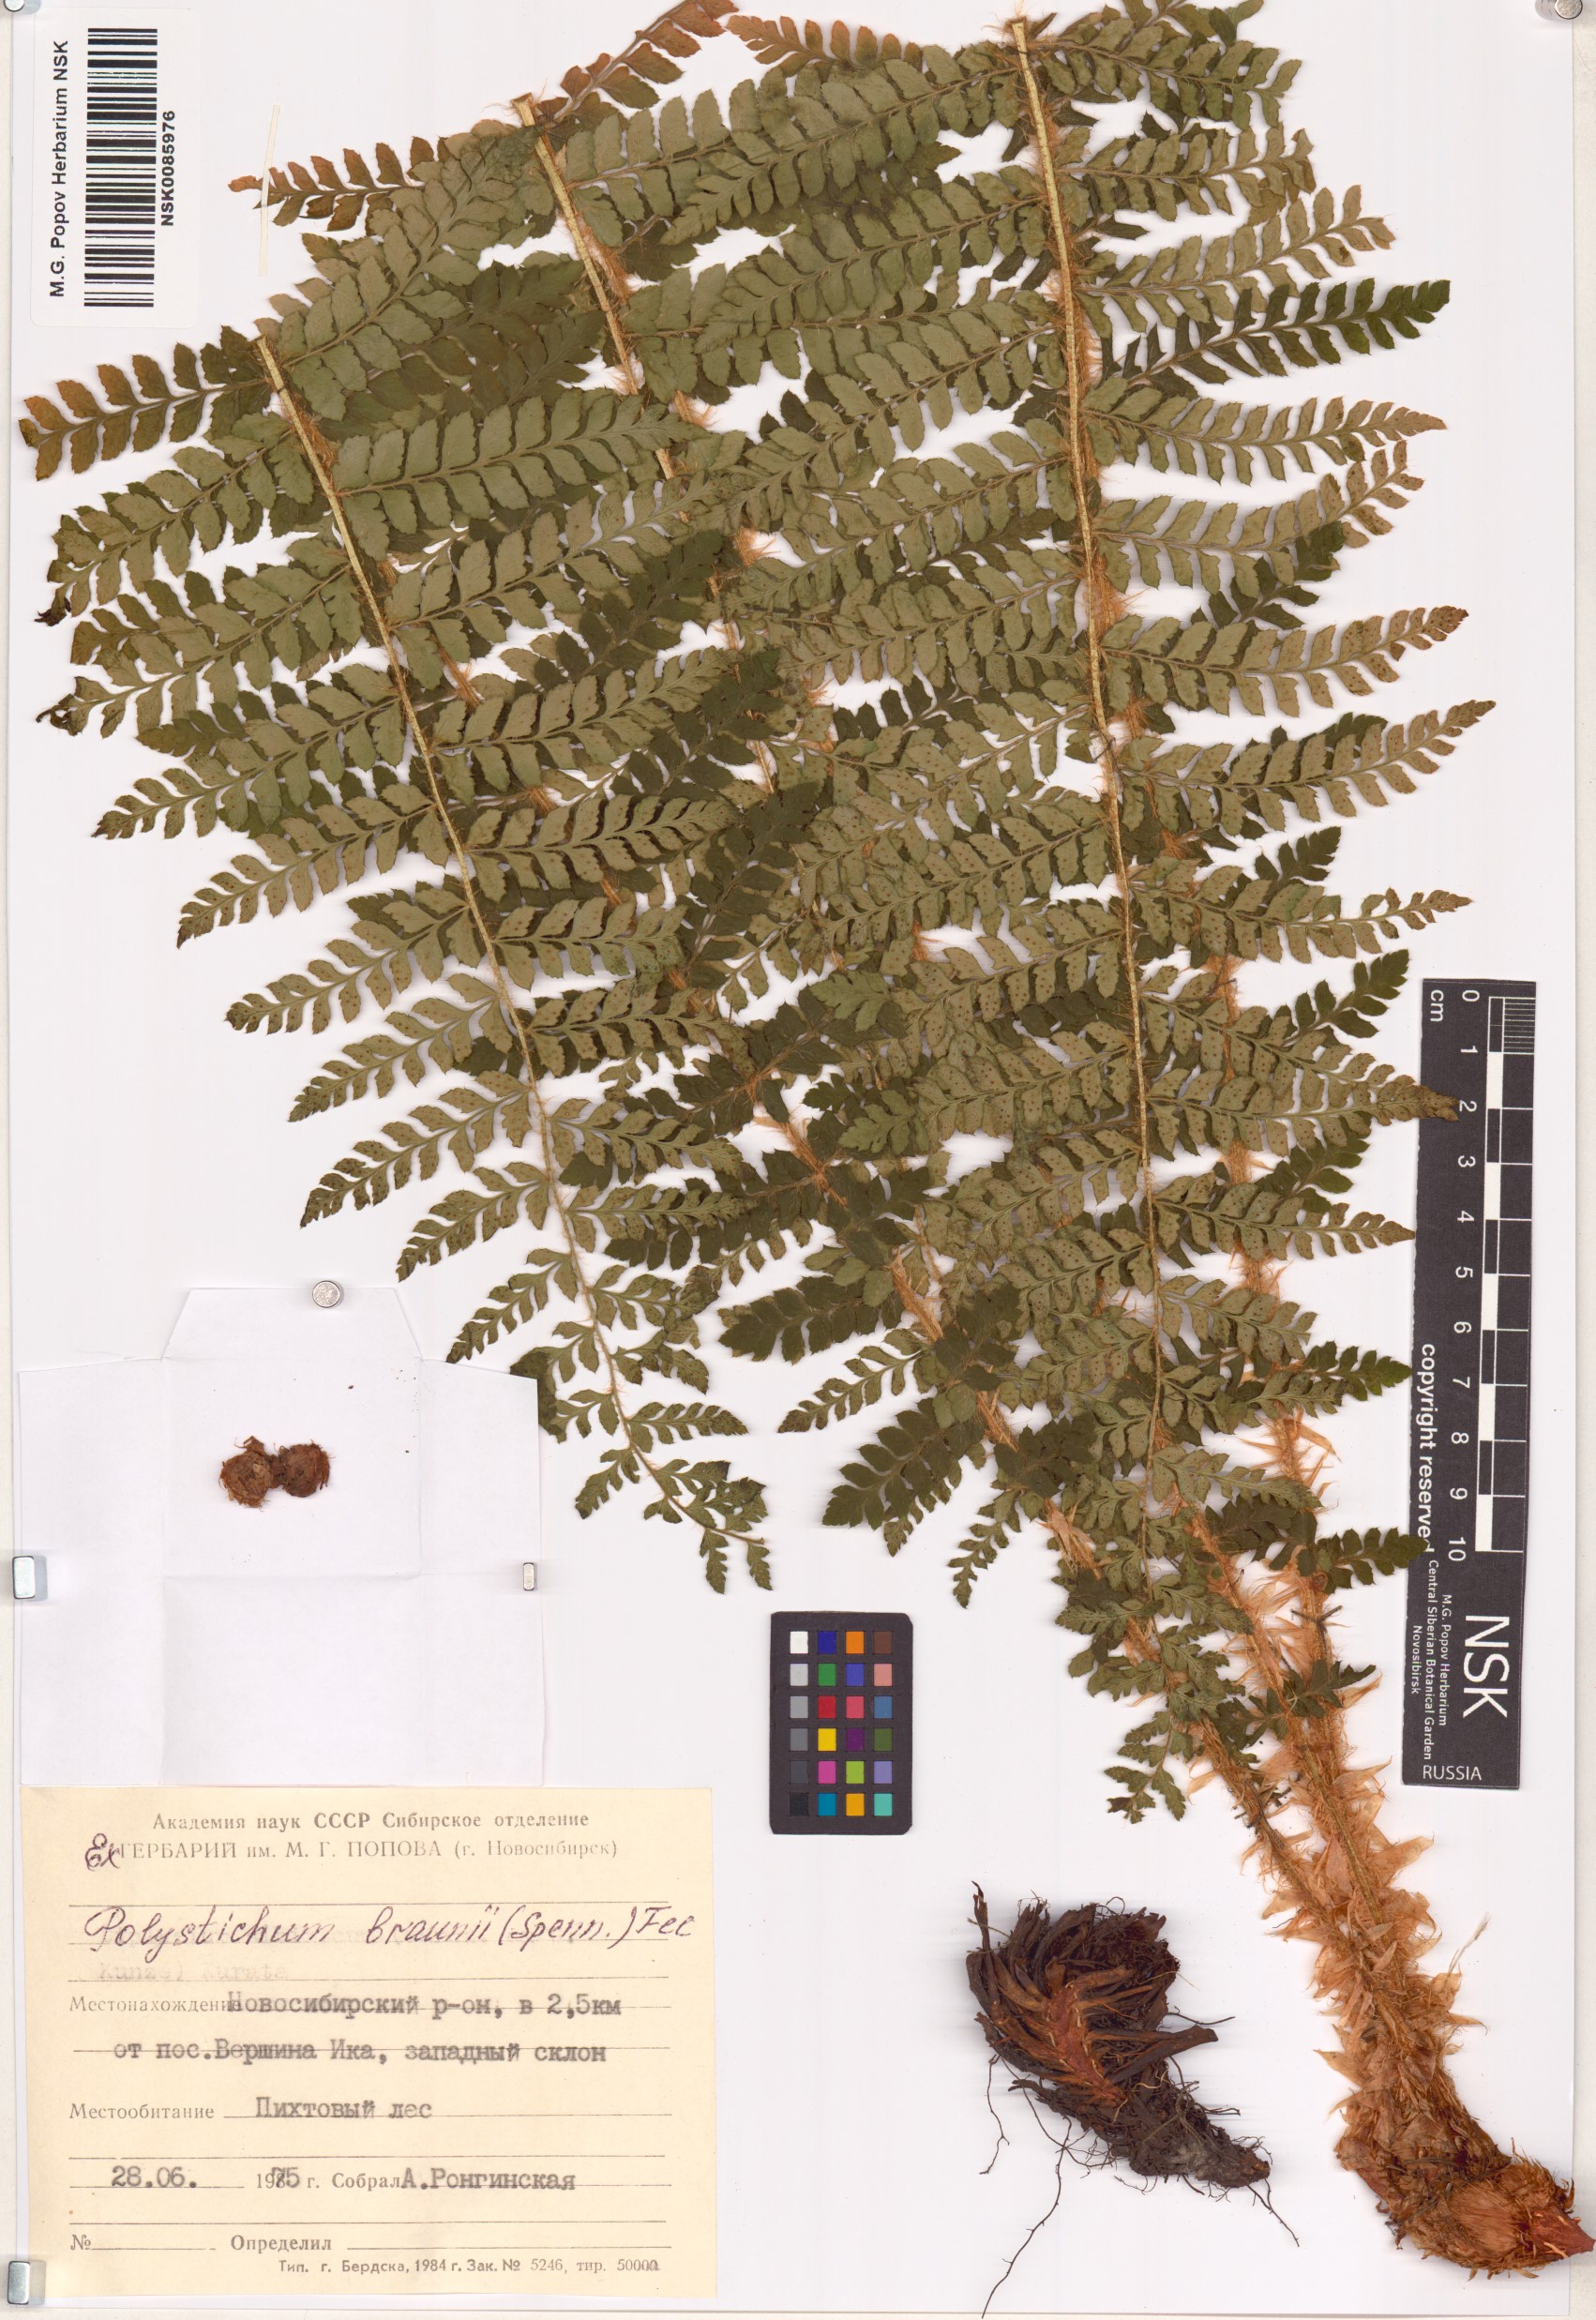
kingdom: Plantae
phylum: Tracheophyta
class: Polypodiopsida
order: Polypodiales
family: Dryopteridaceae
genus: Polystichum
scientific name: Polystichum braunii
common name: Braun's holly fern
